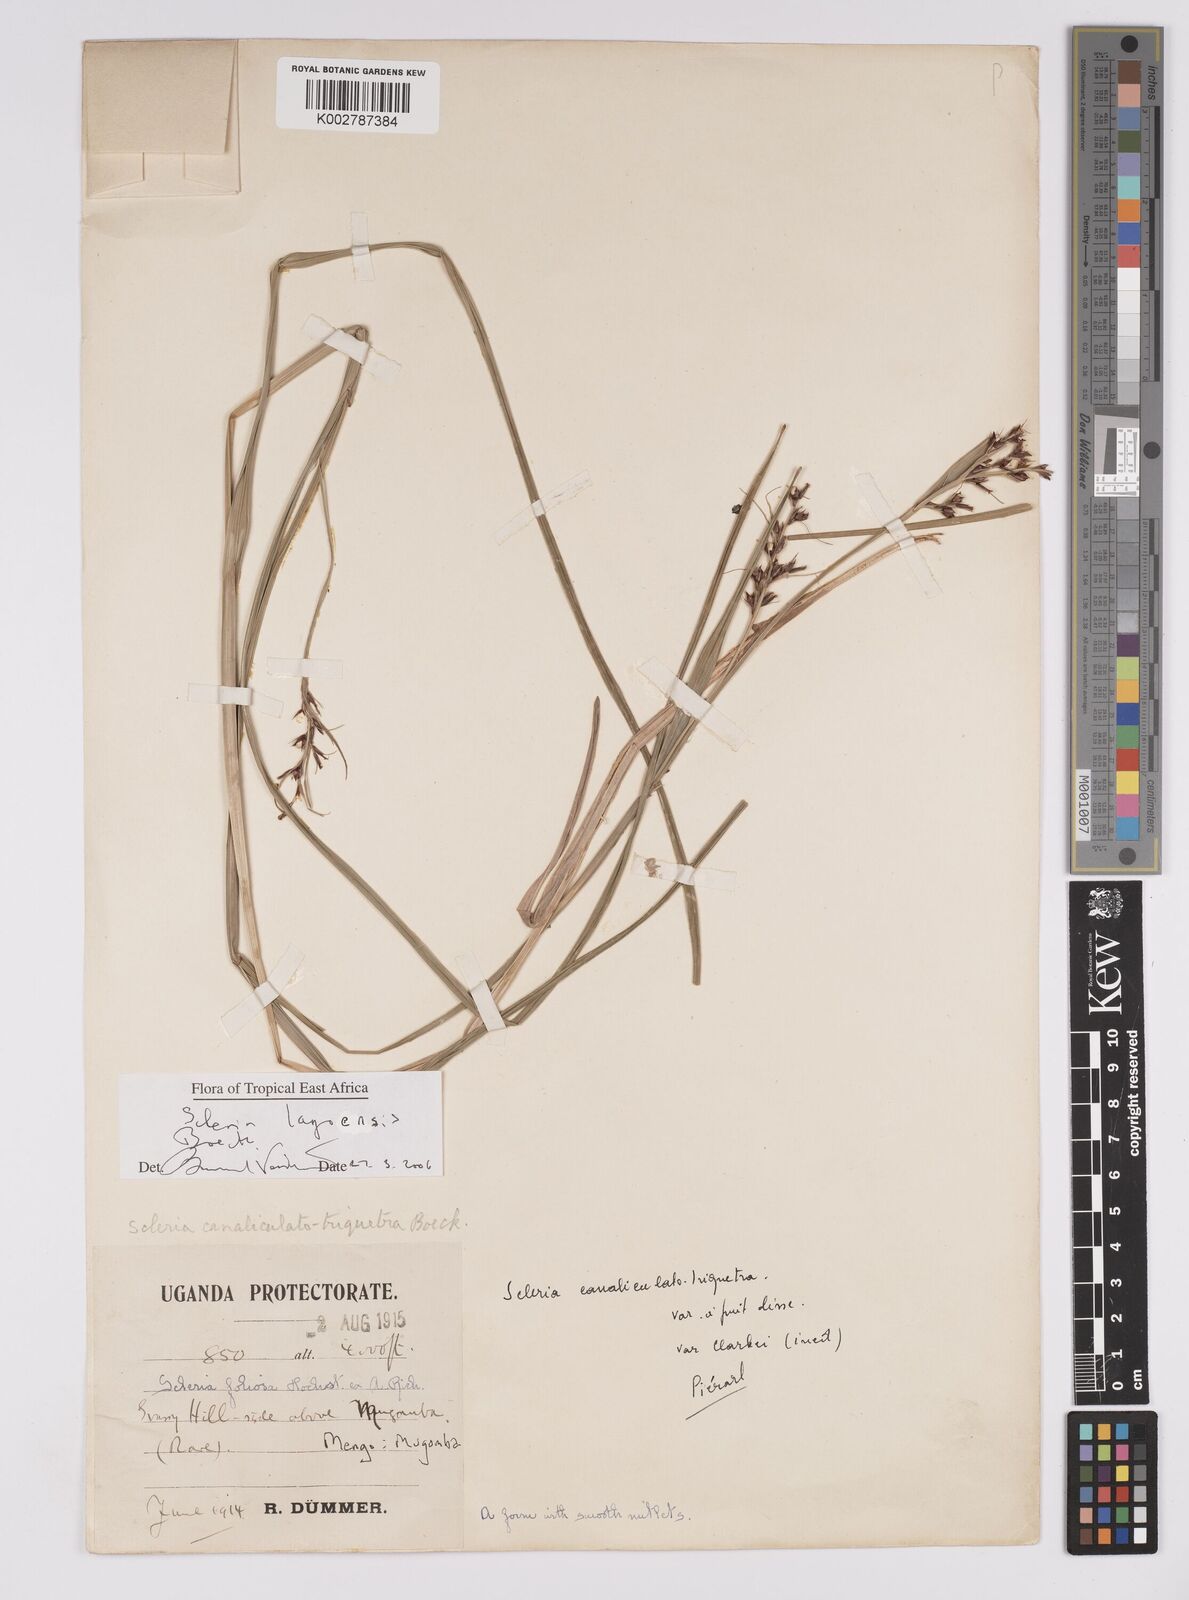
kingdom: Plantae
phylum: Tracheophyta
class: Liliopsida
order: Poales
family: Cyperaceae
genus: Scleria
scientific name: Scleria lagoensis
